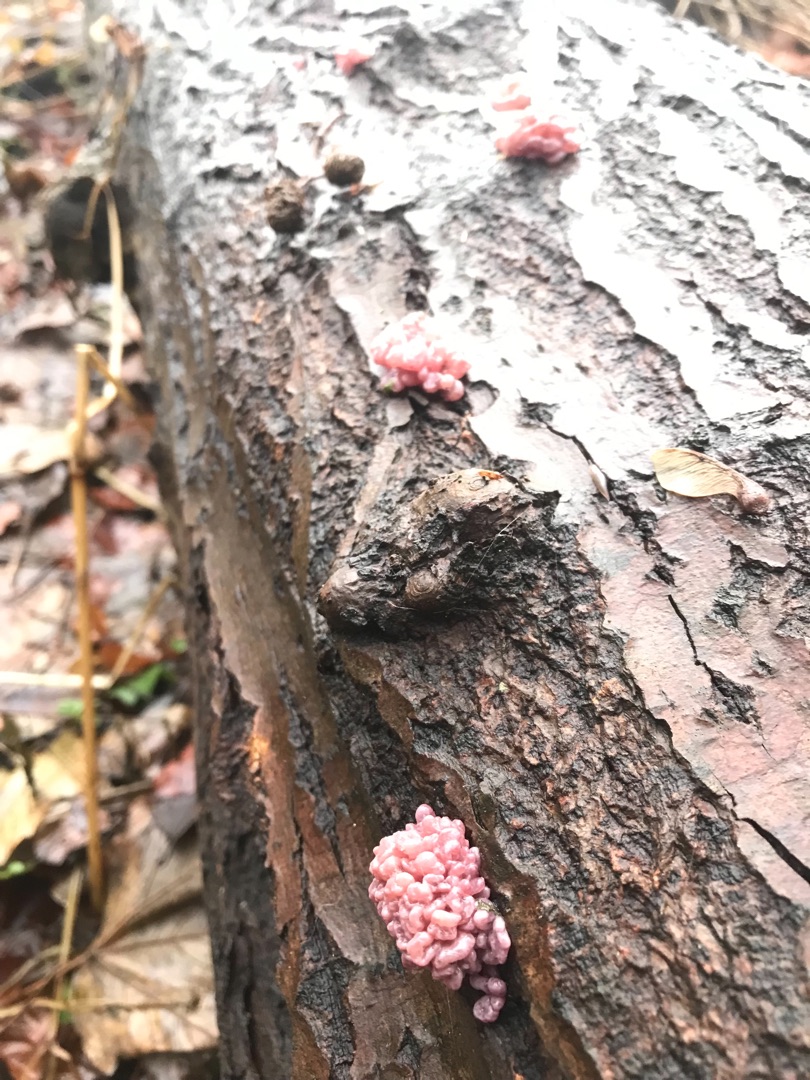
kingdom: Fungi
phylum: Ascomycota
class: Leotiomycetes
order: Helotiales
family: Gelatinodiscaceae
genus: Ascocoryne
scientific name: Ascocoryne sarcoides
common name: Rødlilla sejskive
